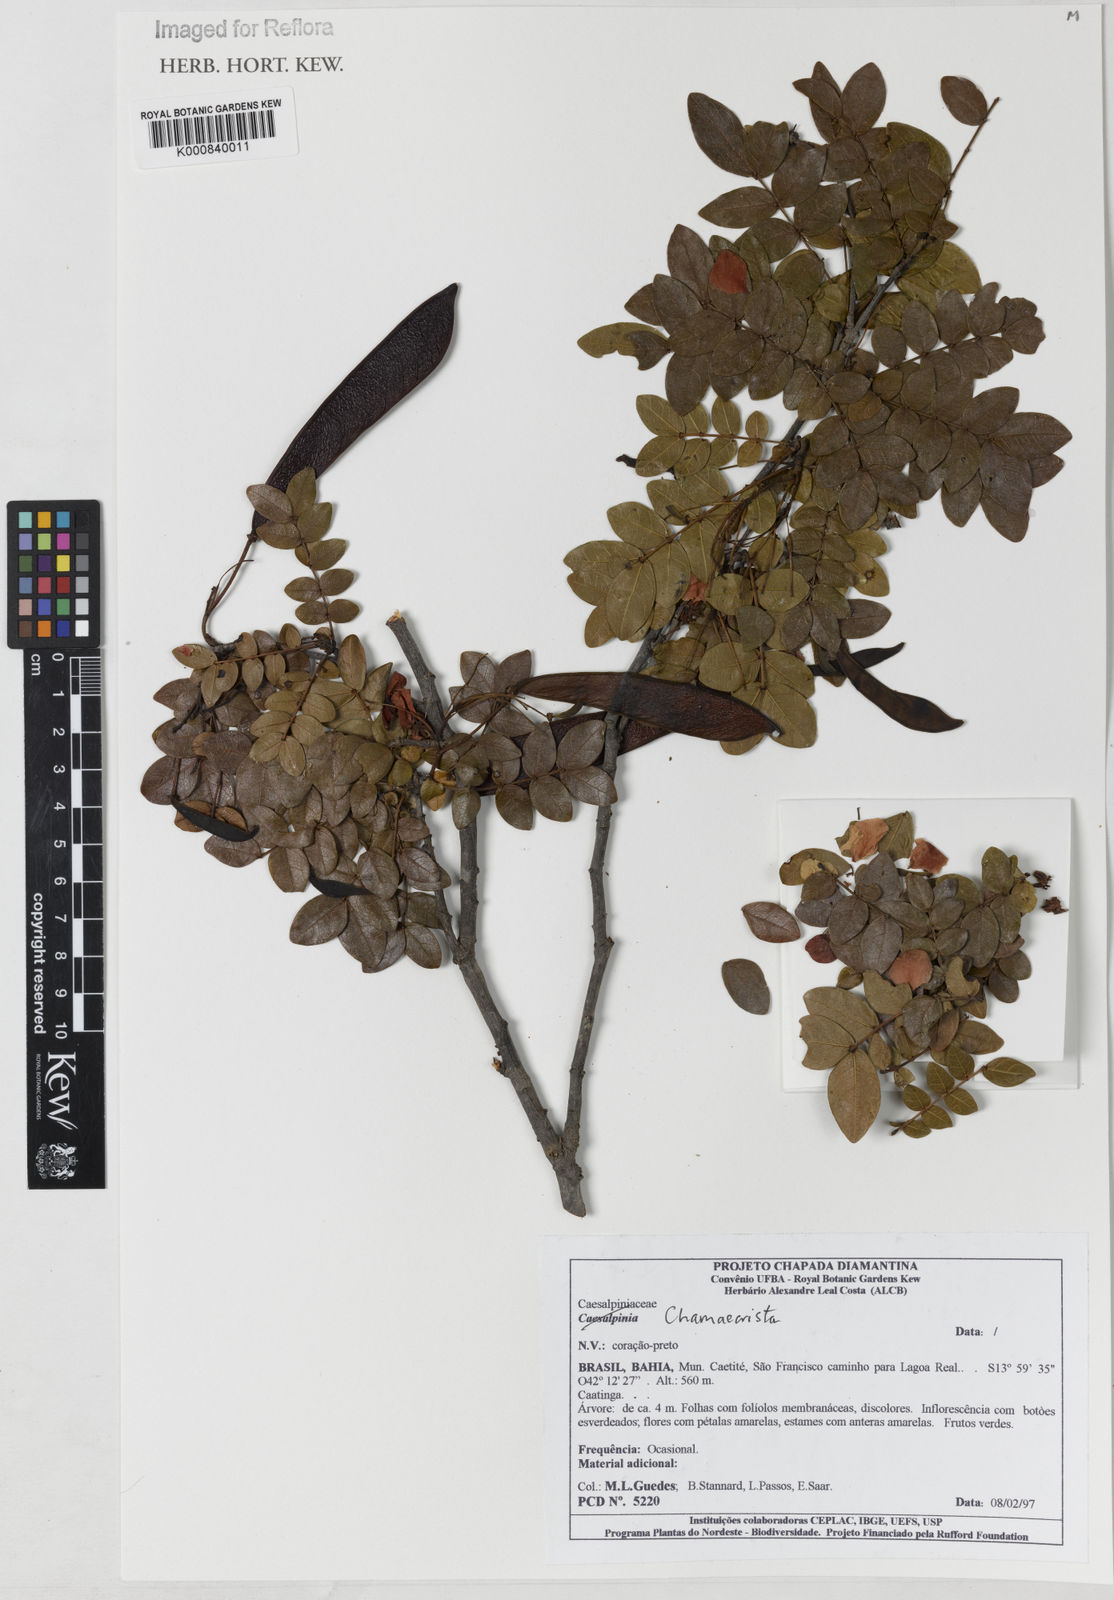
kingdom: Plantae
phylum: Tracheophyta
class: Magnoliopsida
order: Fabales
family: Fabaceae
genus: Chamaecrista
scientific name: Chamaecrista aspidiifolia
